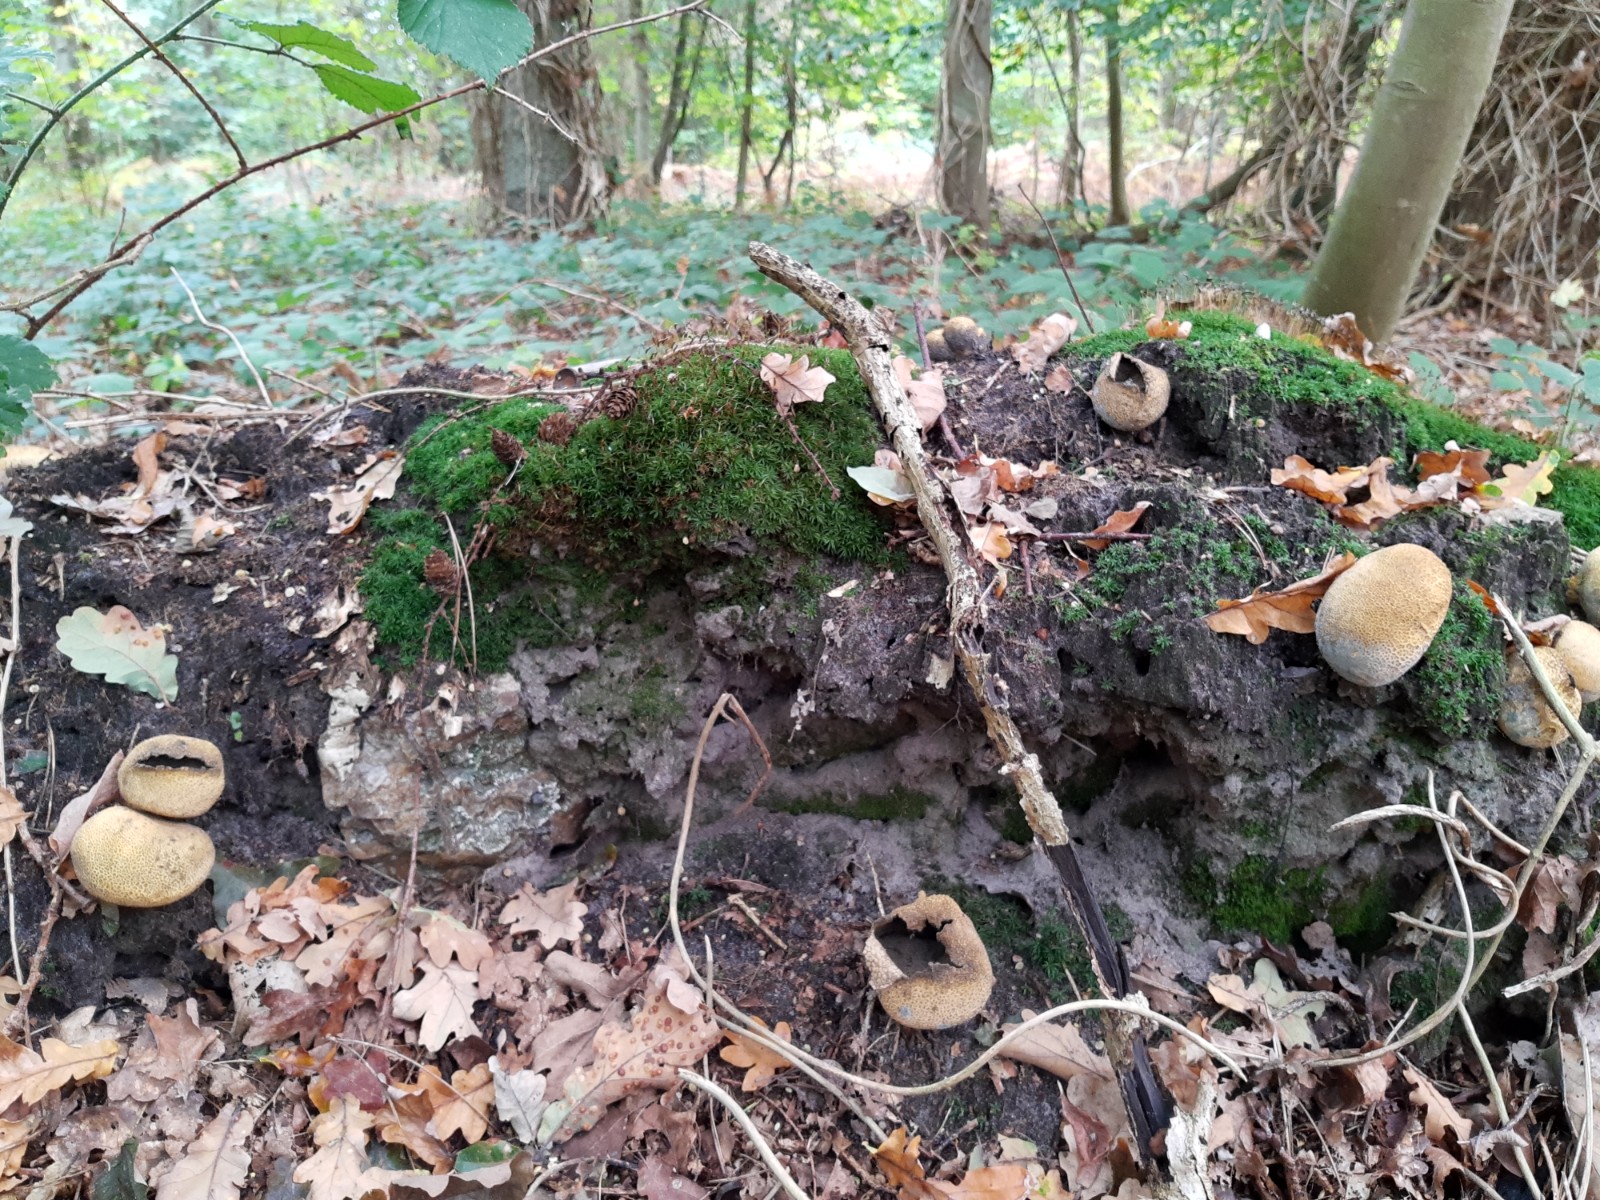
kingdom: Fungi
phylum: Basidiomycota
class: Agaricomycetes
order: Boletales
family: Sclerodermataceae
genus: Scleroderma
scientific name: Scleroderma citrinum
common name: almindelig bruskbold
